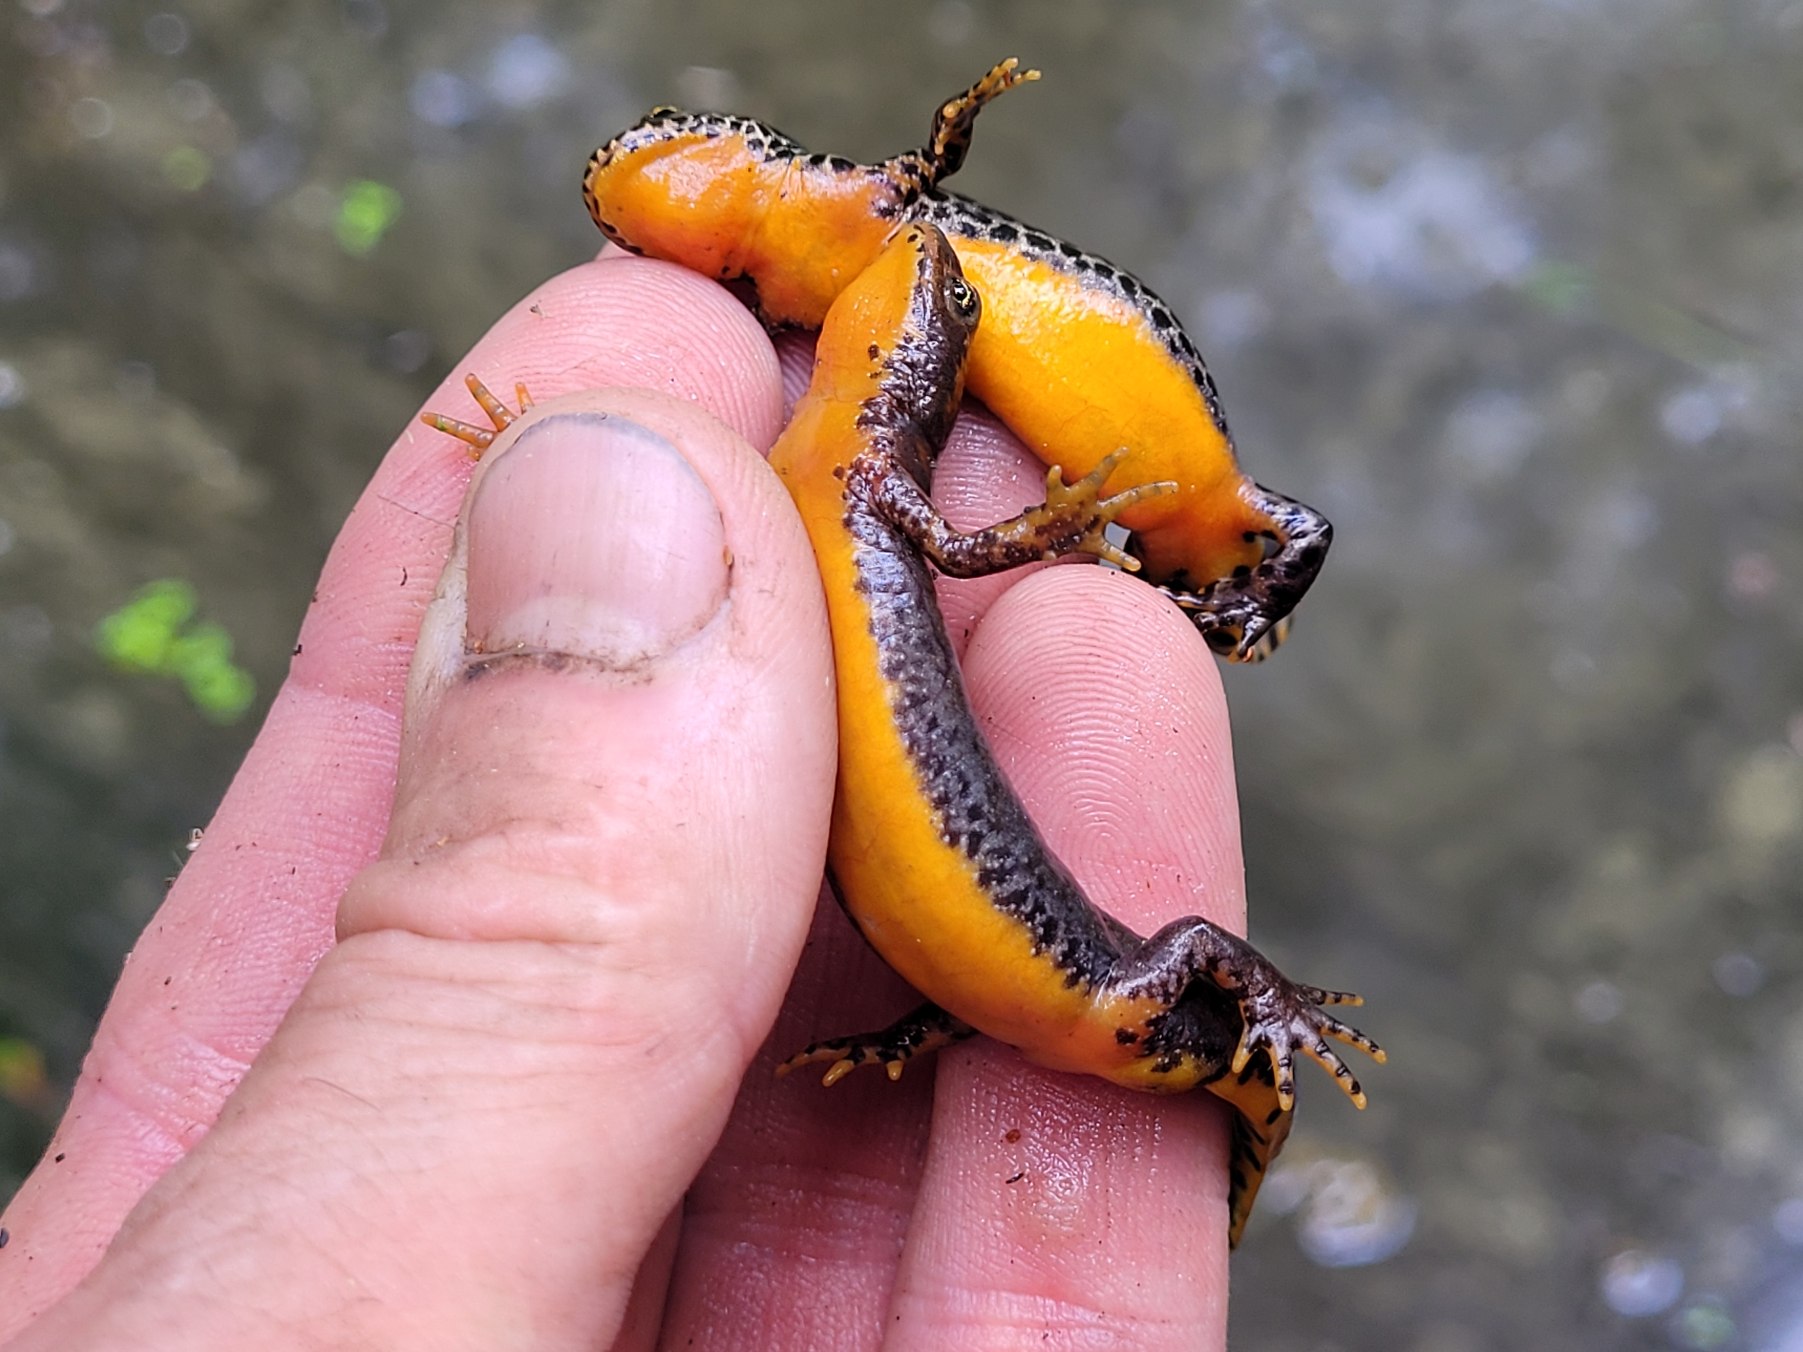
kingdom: Animalia
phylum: Chordata
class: Amphibia
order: Caudata
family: Salamandridae
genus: Ichthyosaura
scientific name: Ichthyosaura alpestris
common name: Bjergsalamander
